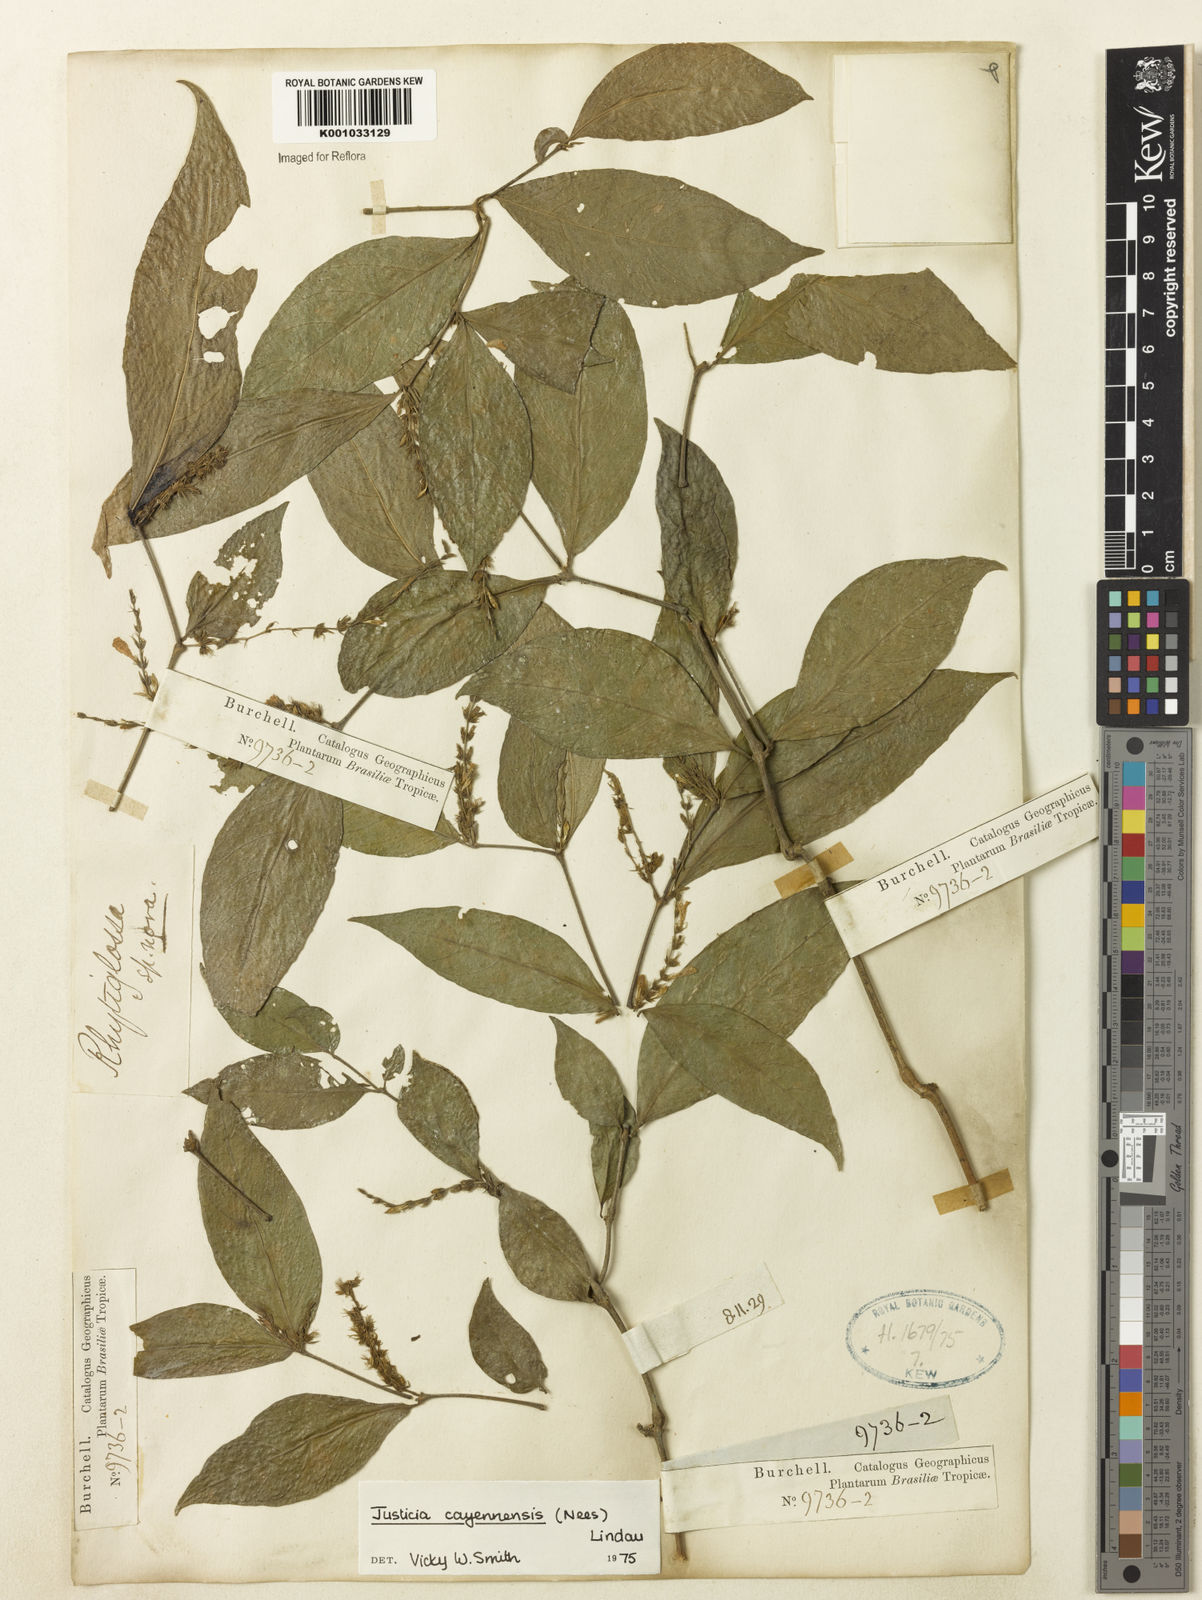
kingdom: Plantae
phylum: Tracheophyta
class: Magnoliopsida
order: Lamiales
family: Acanthaceae
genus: Dianthera
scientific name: Dianthera cayennensis
